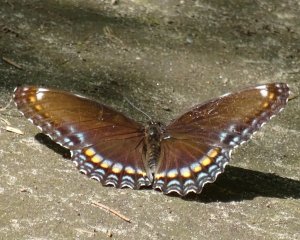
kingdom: Animalia
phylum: Arthropoda
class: Insecta
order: Lepidoptera
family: Nymphalidae
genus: Limenitis
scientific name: Limenitis astyanax
